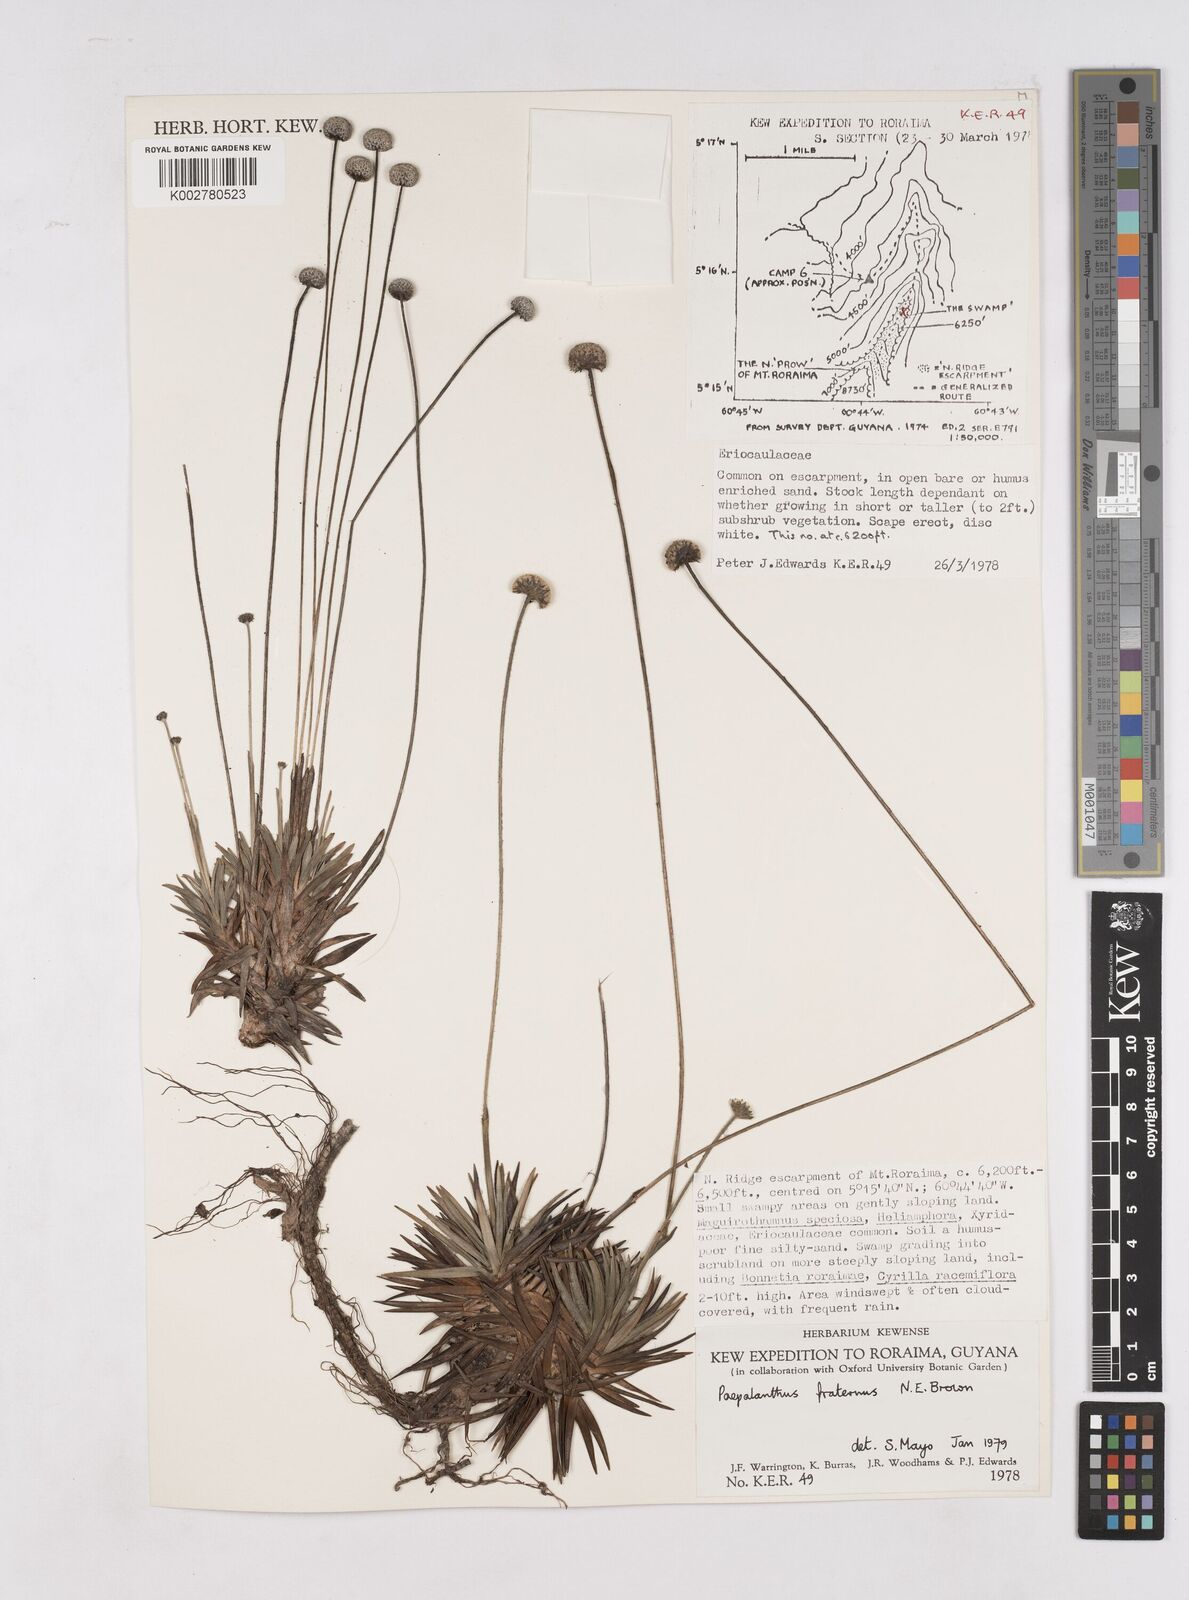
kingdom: Plantae
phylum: Tracheophyta
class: Liliopsida
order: Poales
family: Eriocaulaceae
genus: Paepalanthus
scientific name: Paepalanthus fraternus
